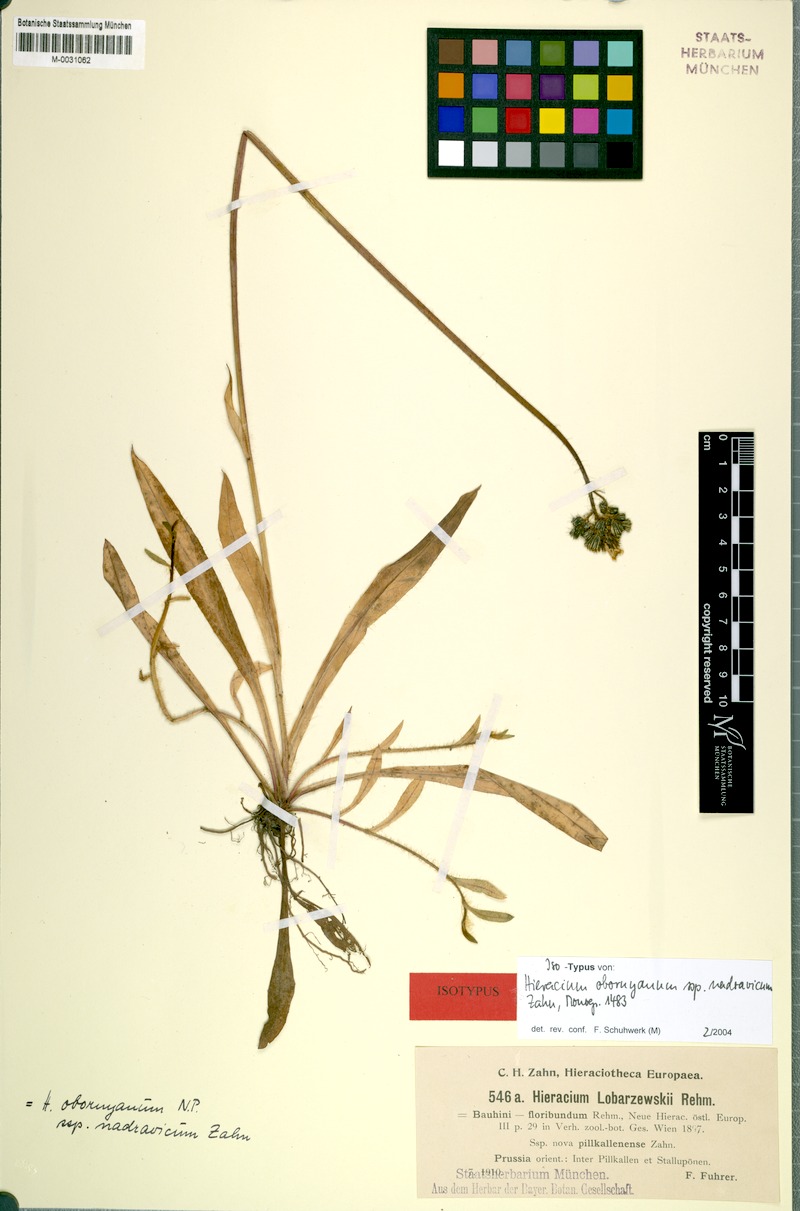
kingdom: Plantae
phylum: Tracheophyta
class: Magnoliopsida
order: Asterales
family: Asteraceae
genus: Pilosella
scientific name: Pilosella polymastix
